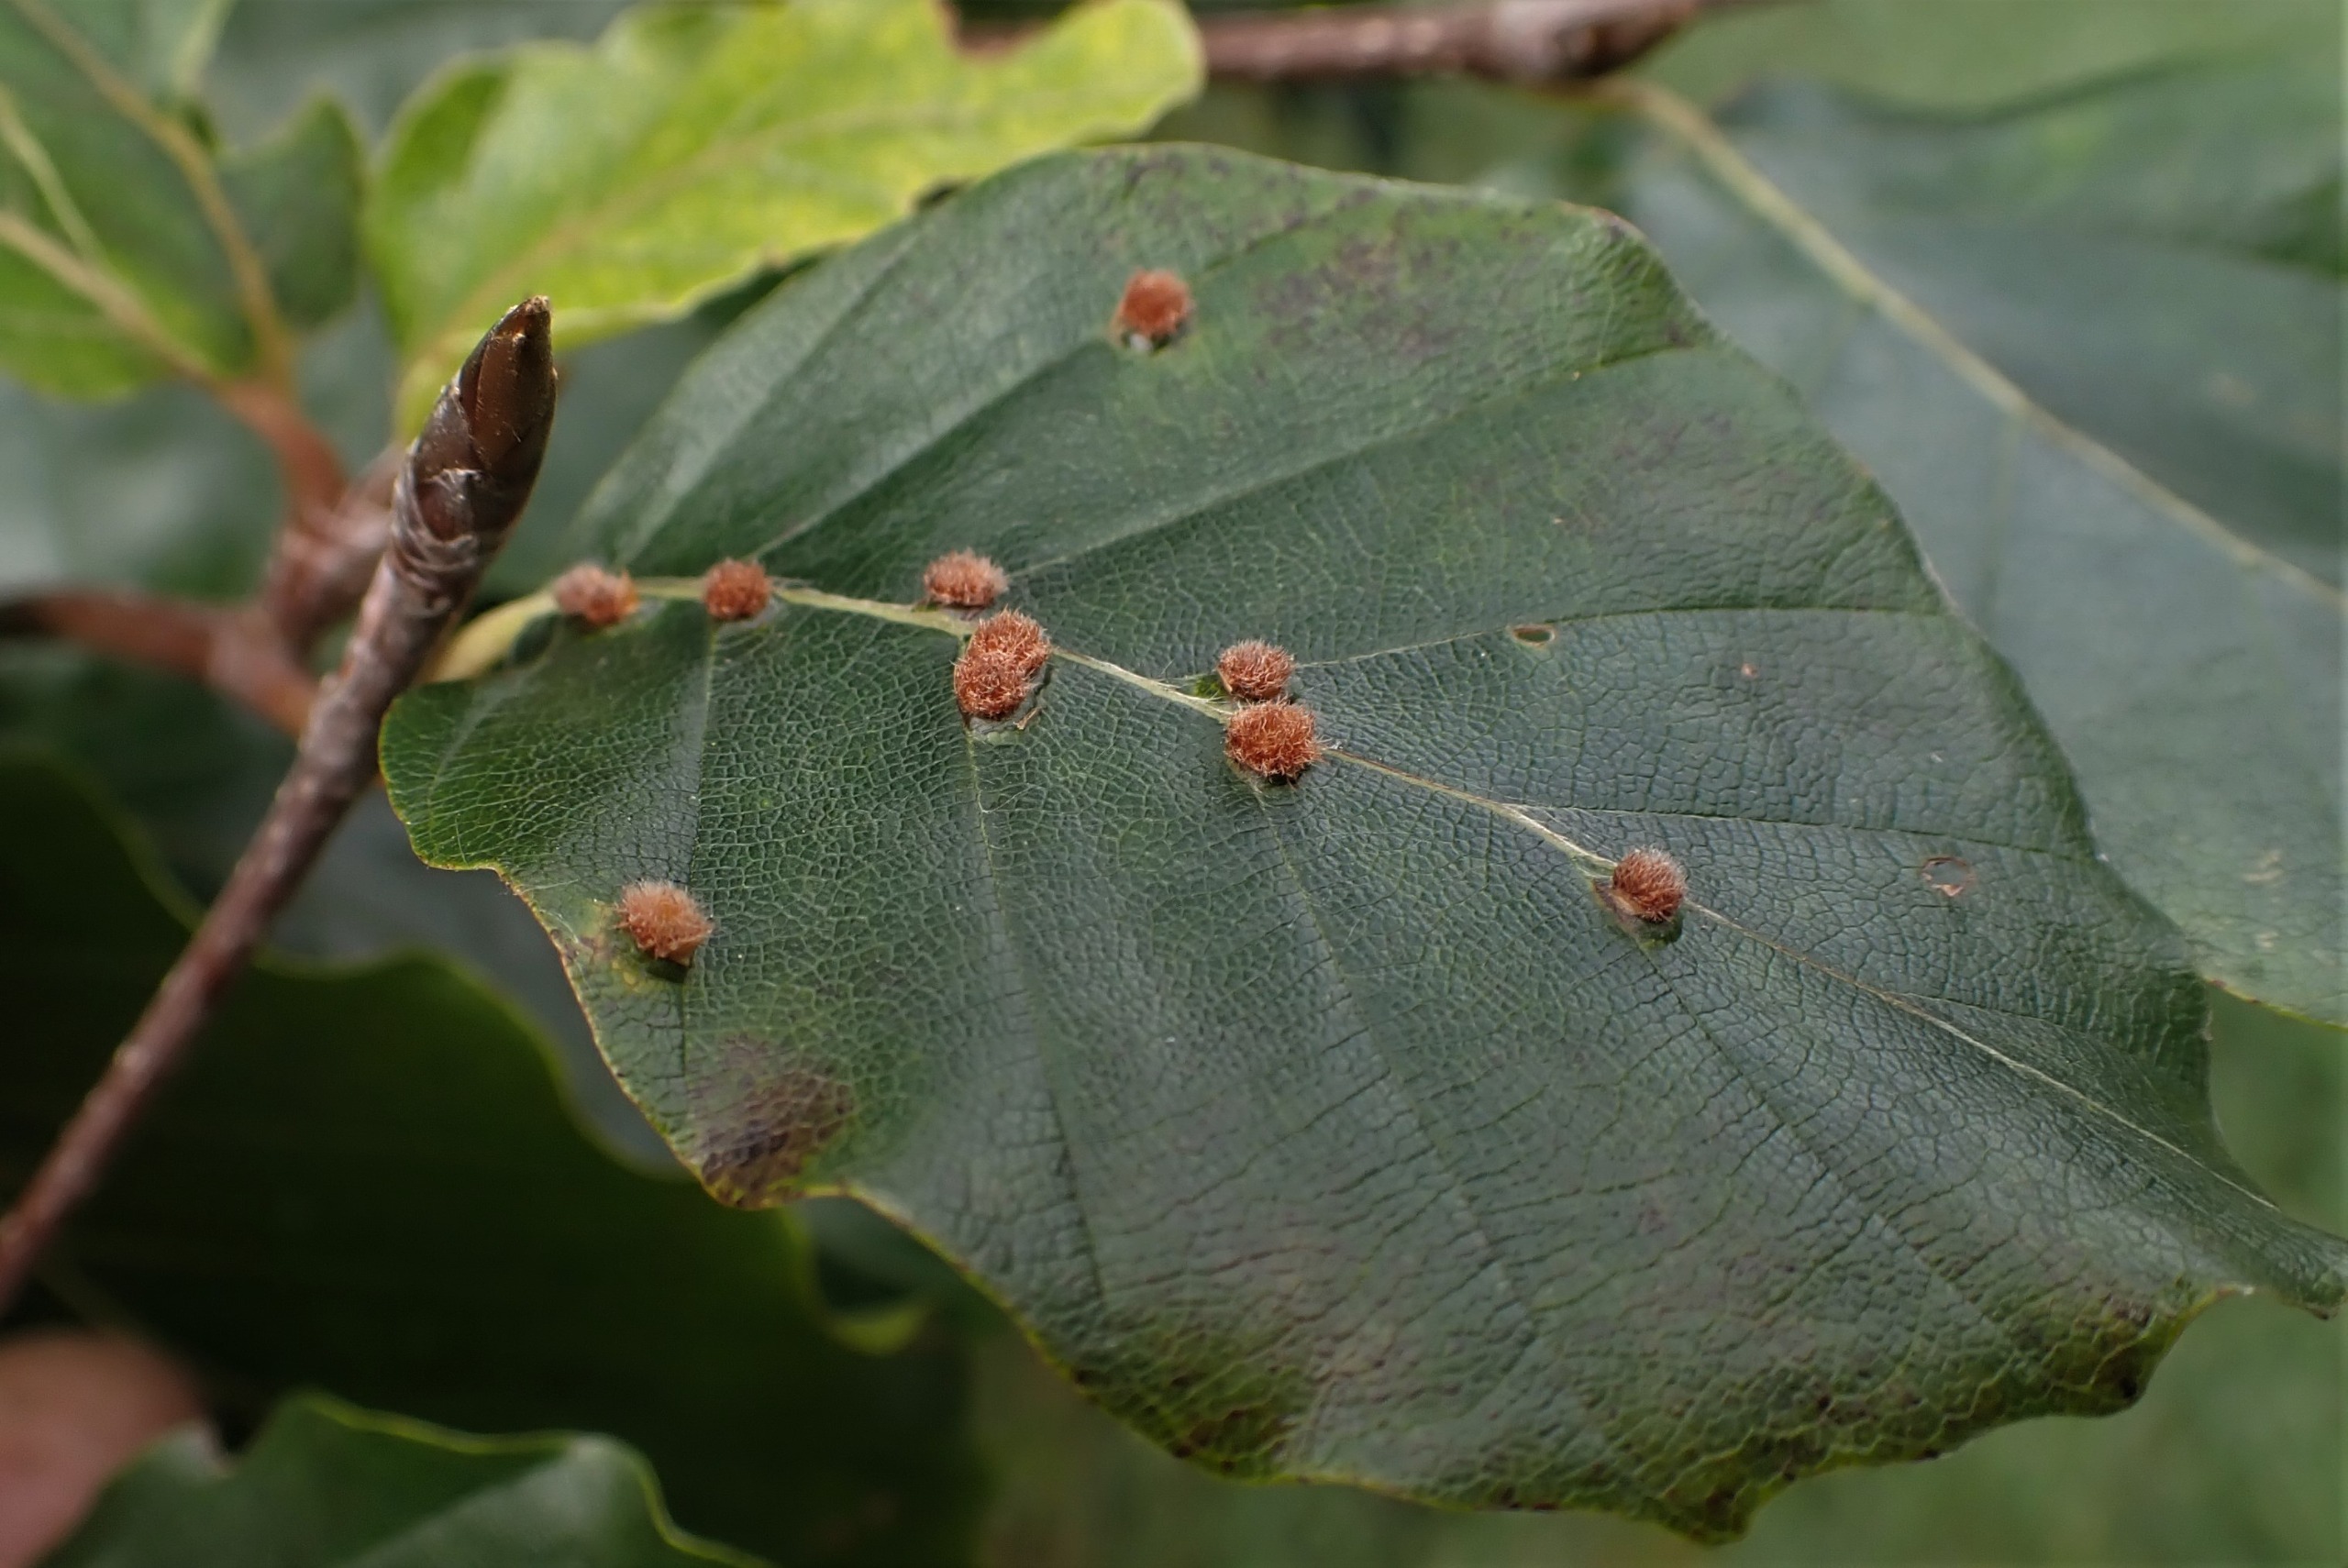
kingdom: Animalia
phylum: Arthropoda
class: Insecta
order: Diptera
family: Cecidomyiidae
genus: Hartigiola
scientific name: Hartigiola annulipes
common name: Skovtroldegalmyg
